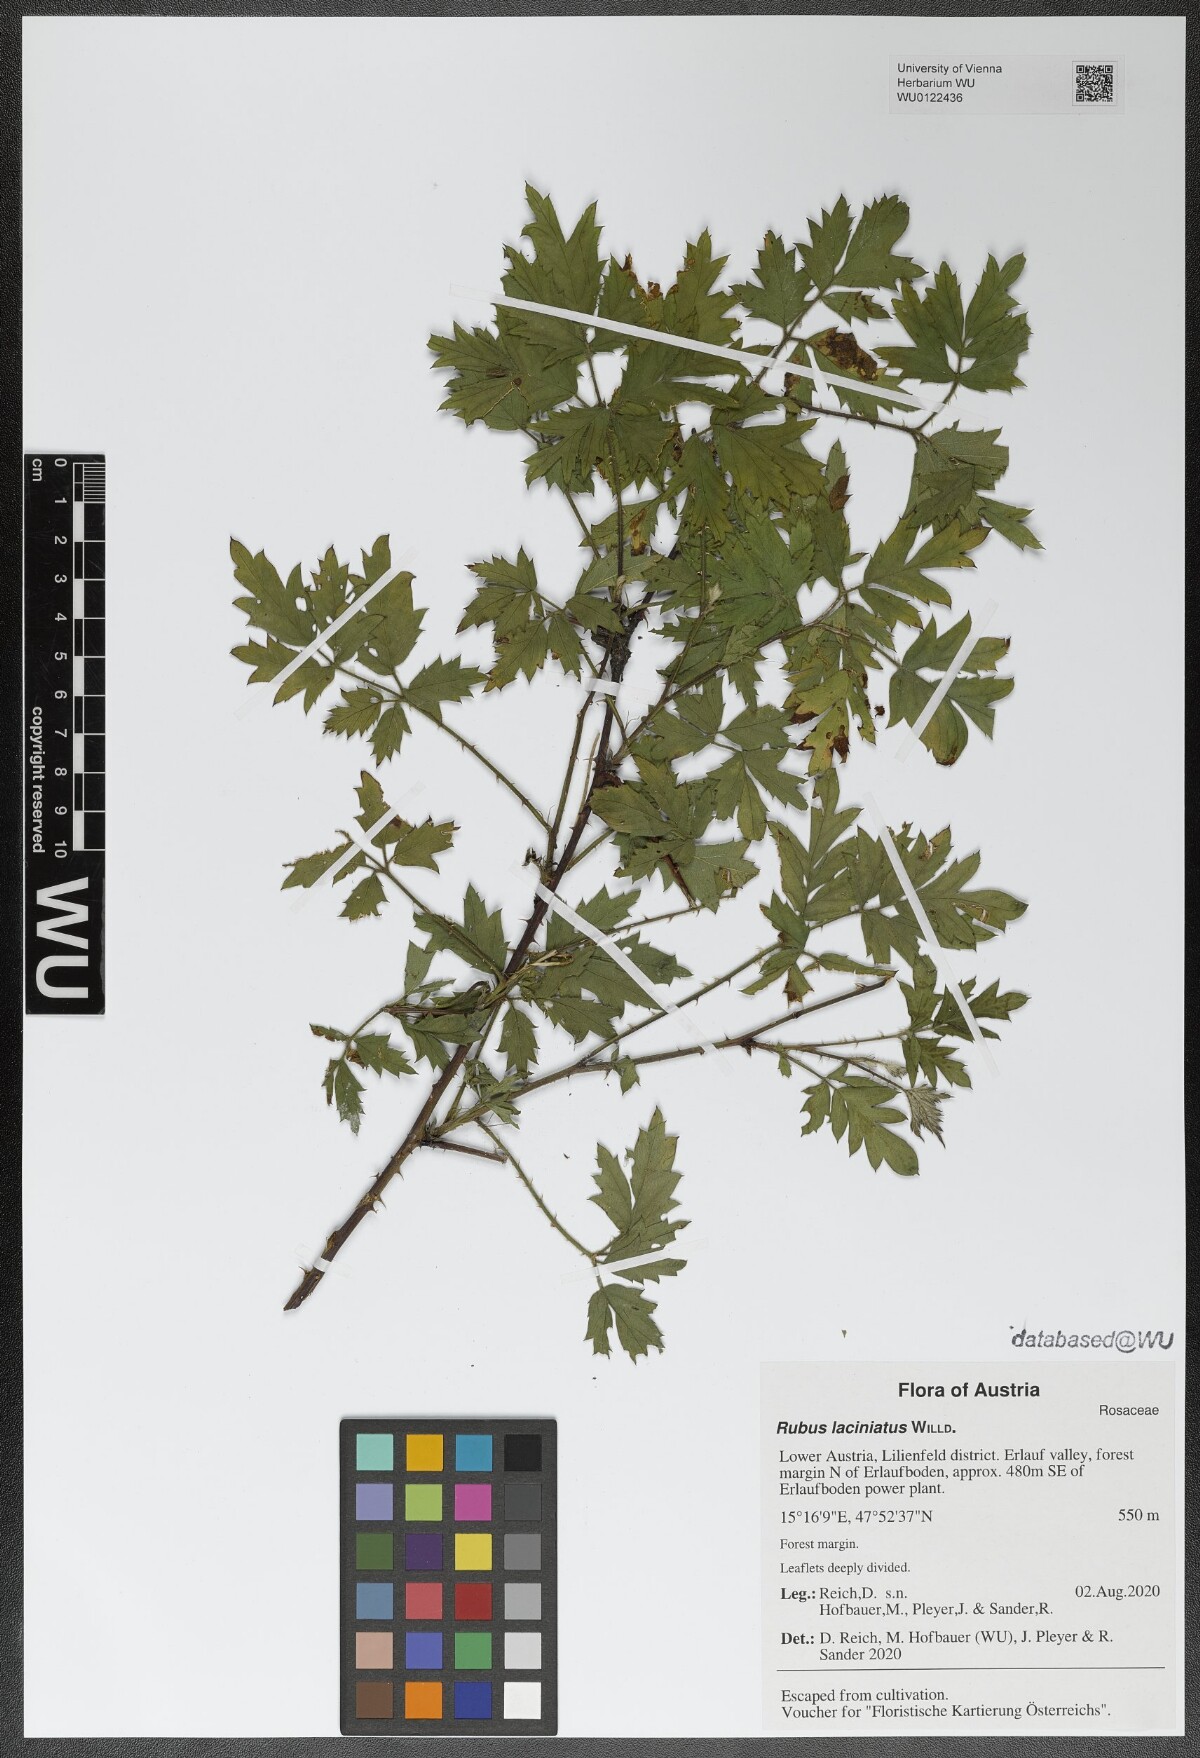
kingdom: Plantae
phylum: Tracheophyta
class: Magnoliopsida
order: Rosales
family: Rosaceae
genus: Rubus
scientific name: Rubus laciniatus
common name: Evergreen blackberry
